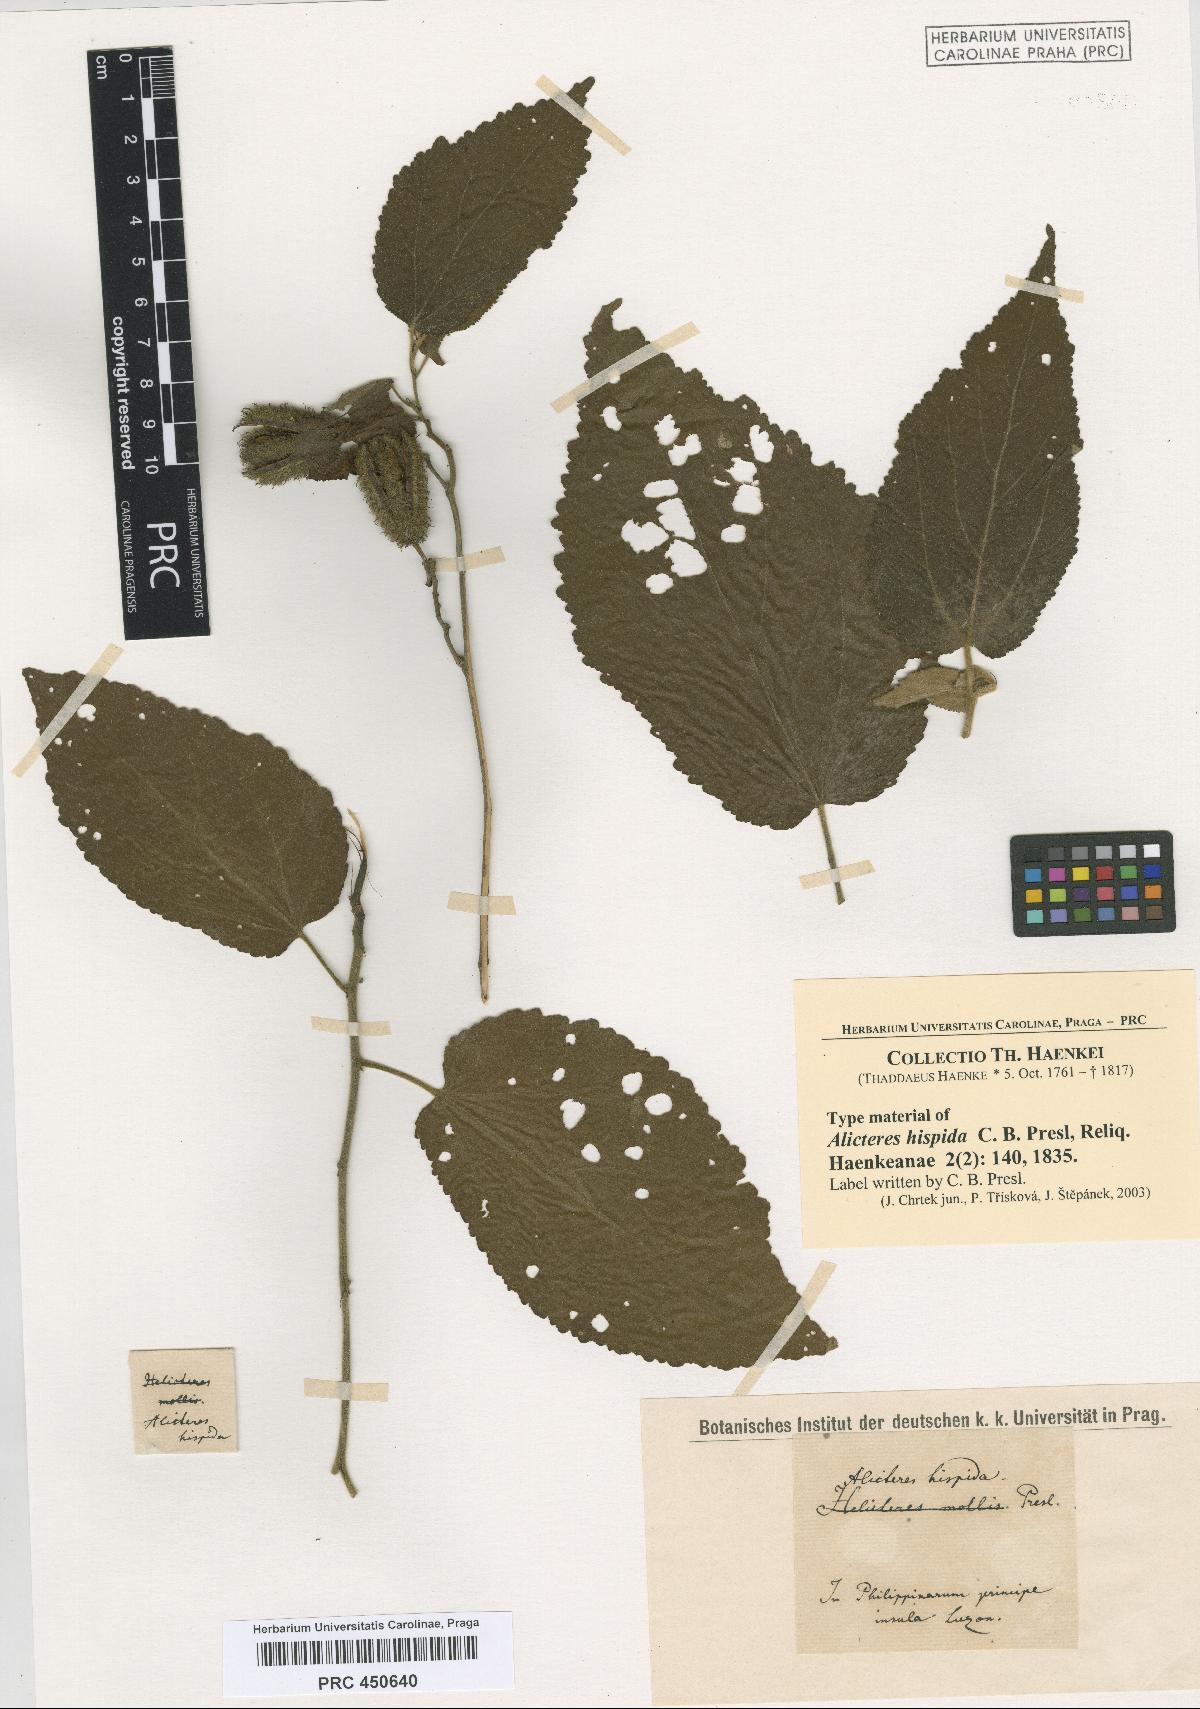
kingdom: Plantae
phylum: Tracheophyta
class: Magnoliopsida
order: Malvales
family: Malvaceae
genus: Helicteres
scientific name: Helicteres hirsuta
